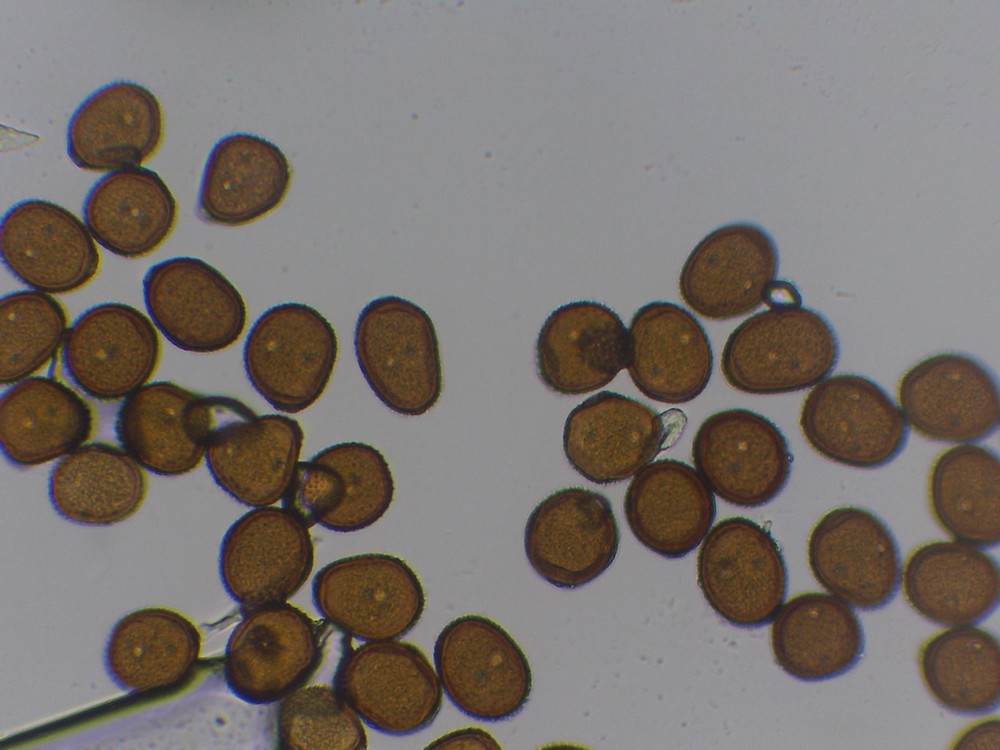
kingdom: Fungi
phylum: Basidiomycota
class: Pucciniomycetes
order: Pucciniales
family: Pucciniaceae
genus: Puccinia
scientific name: Puccinia hieracii
